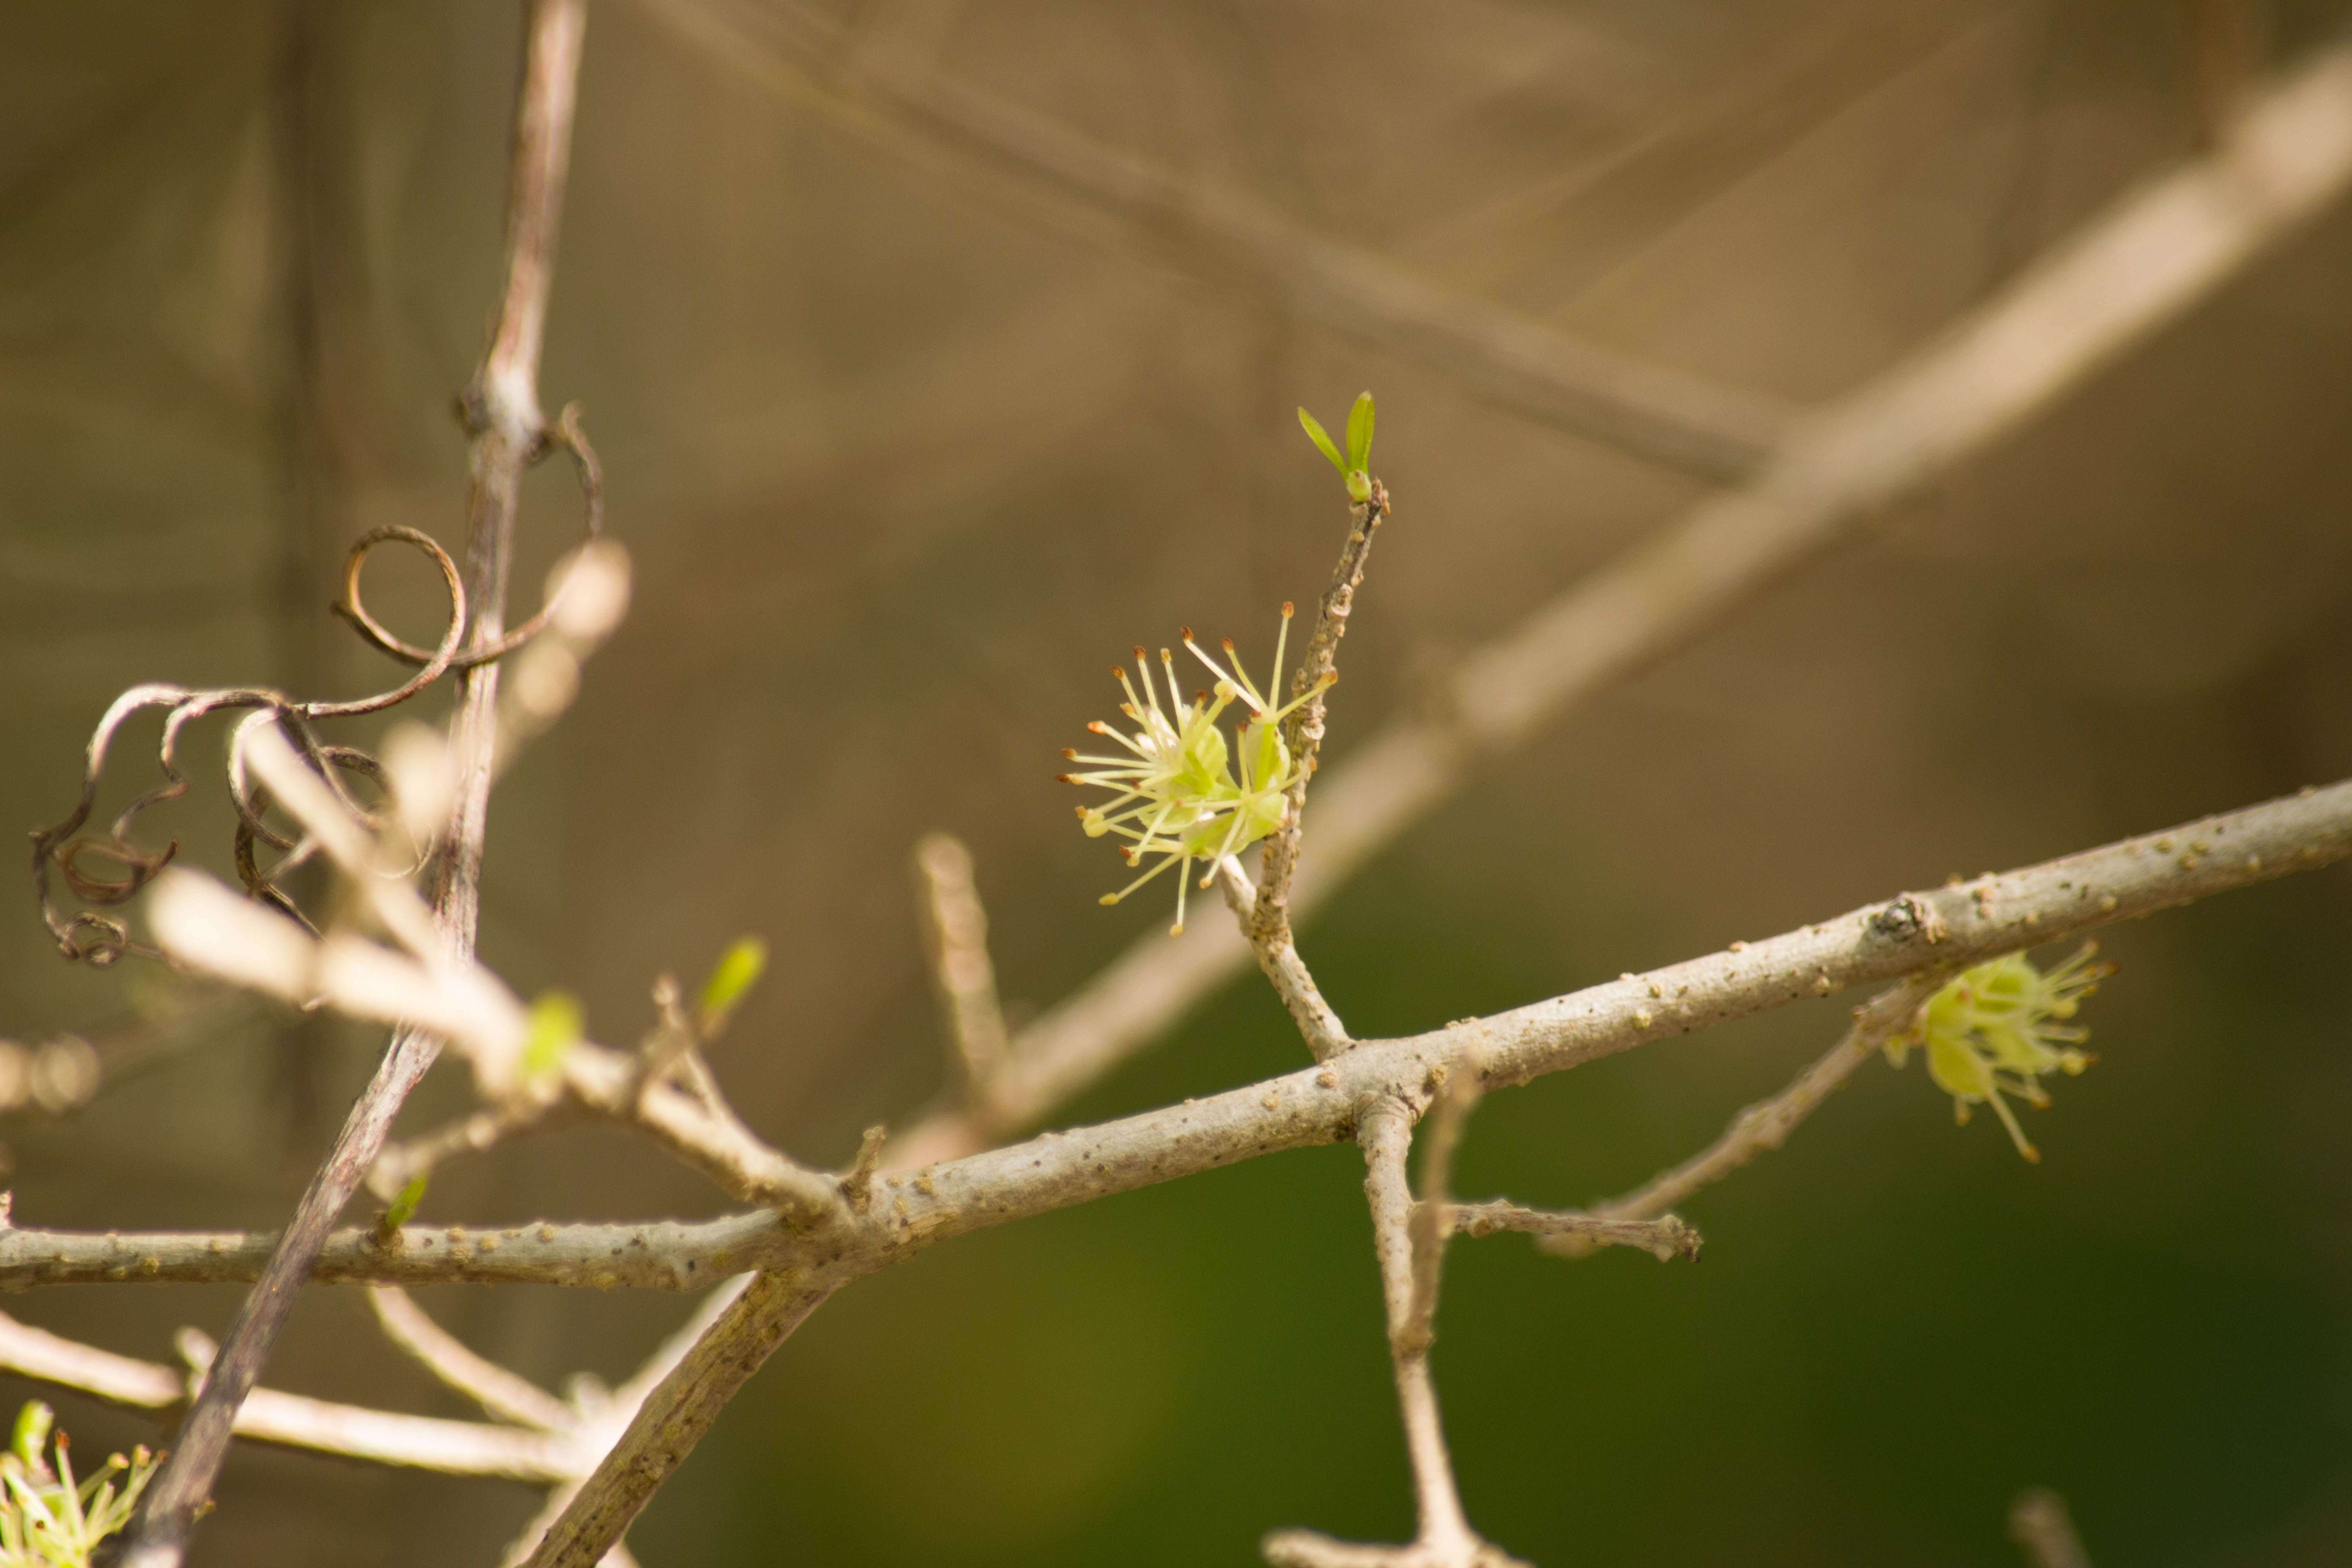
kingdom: Plantae
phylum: Tracheophyta
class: Magnoliopsida
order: Lamiales
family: Oleaceae
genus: Forestiera
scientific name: Forestiera segregata
